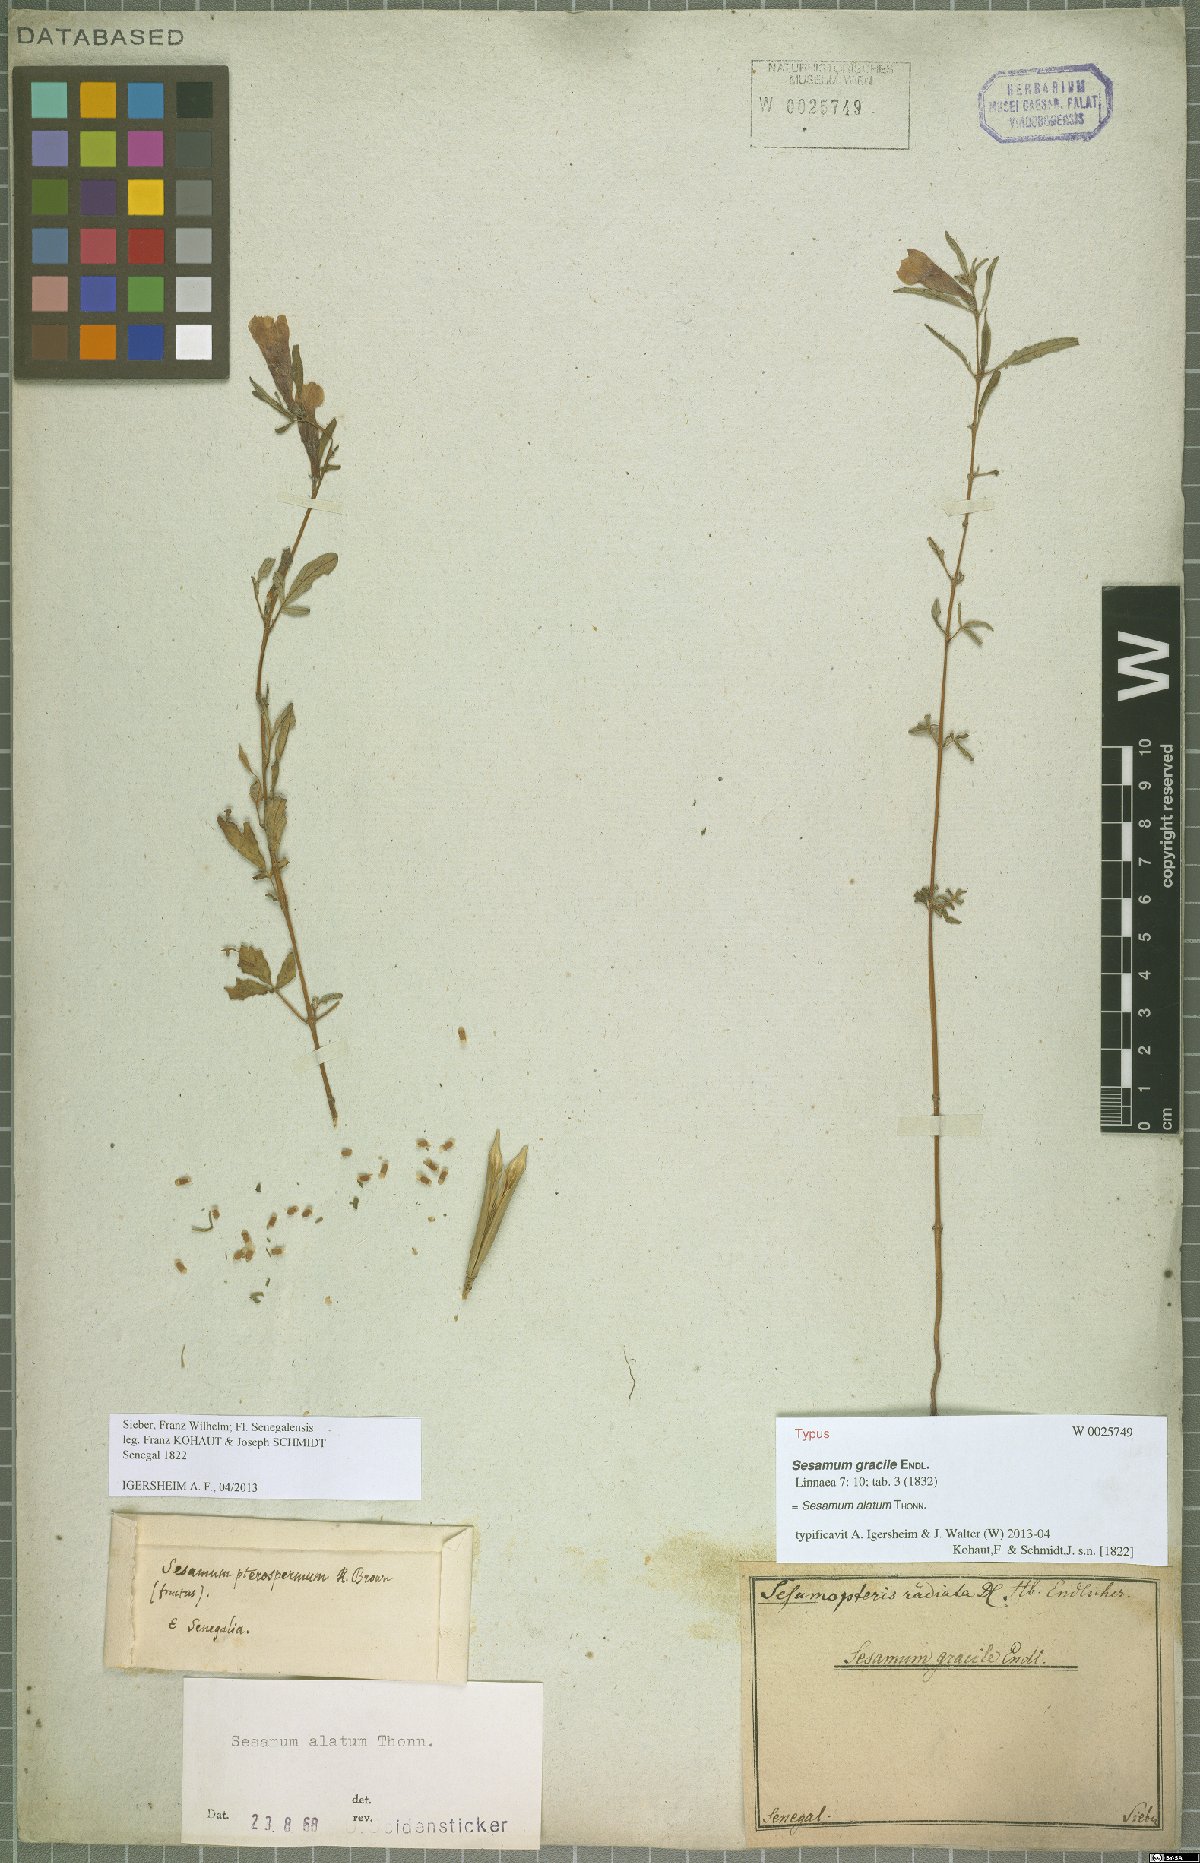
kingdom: Plantae
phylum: Tracheophyta
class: Magnoliopsida
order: Lamiales
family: Pedaliaceae
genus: Sesamum
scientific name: Sesamum alatum
